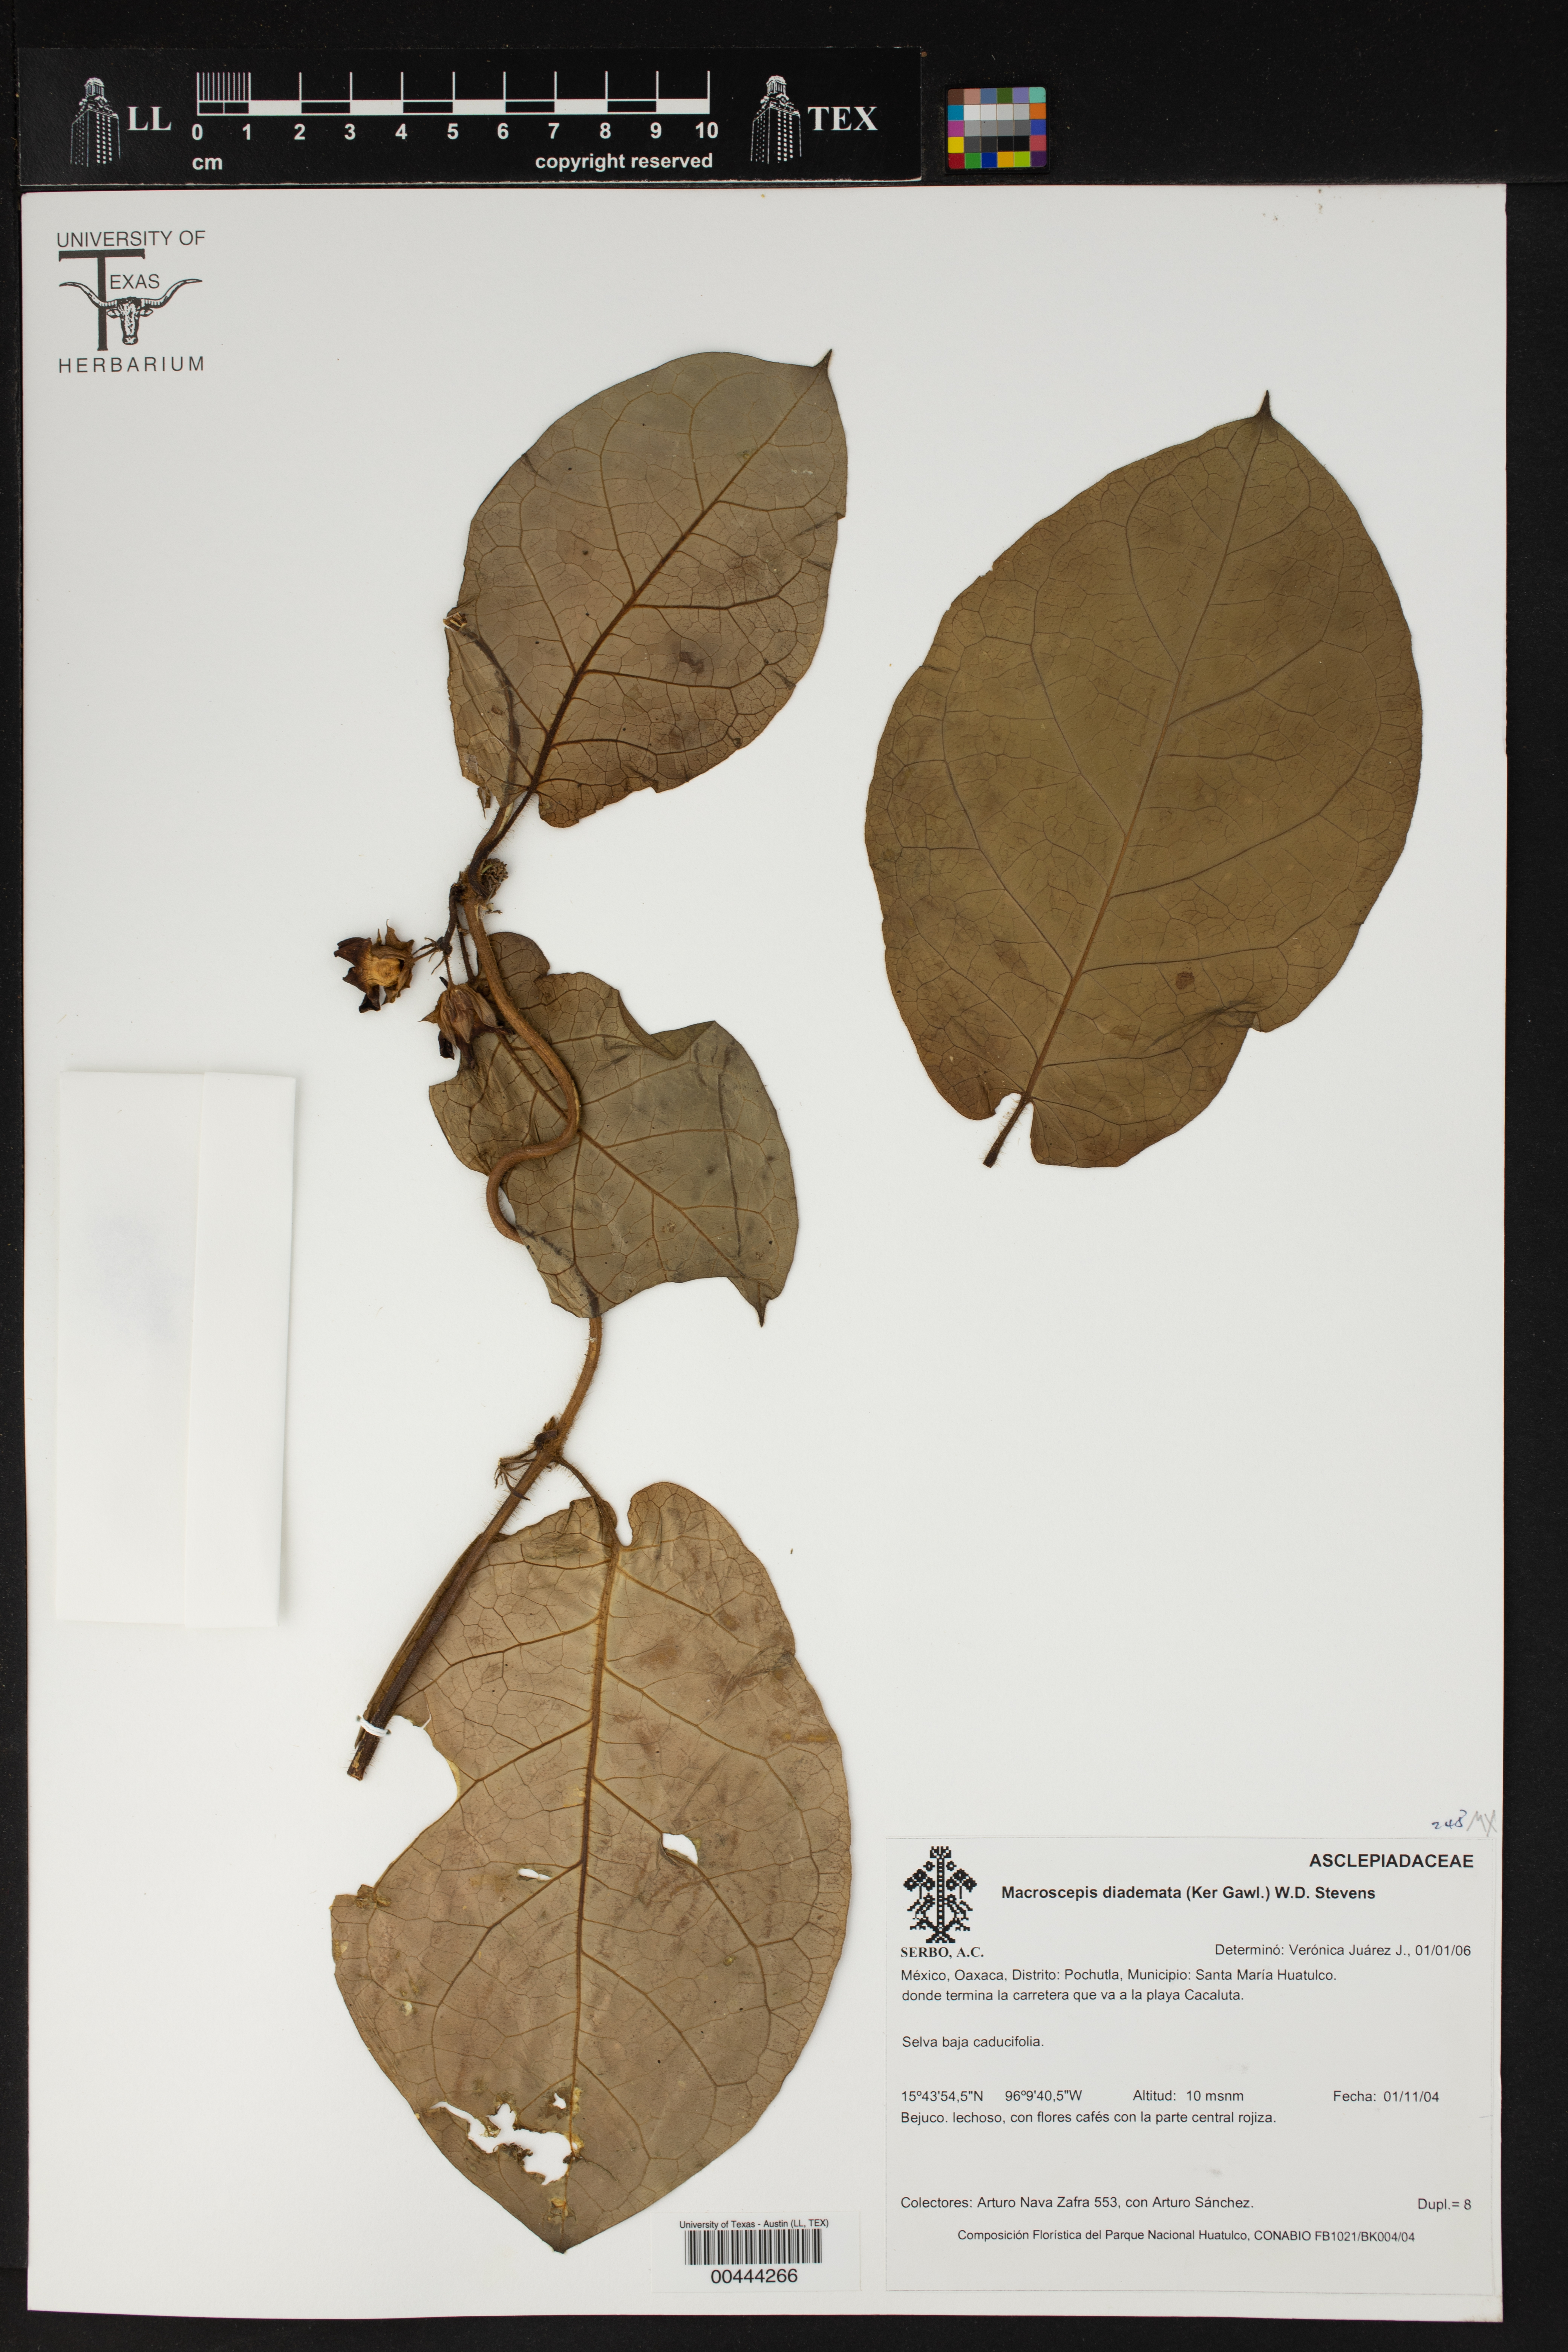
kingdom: Plantae
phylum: Tracheophyta
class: Magnoliopsida
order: Gentianales
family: Apocynaceae
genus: Macroscepis
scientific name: Macroscepis diademata
